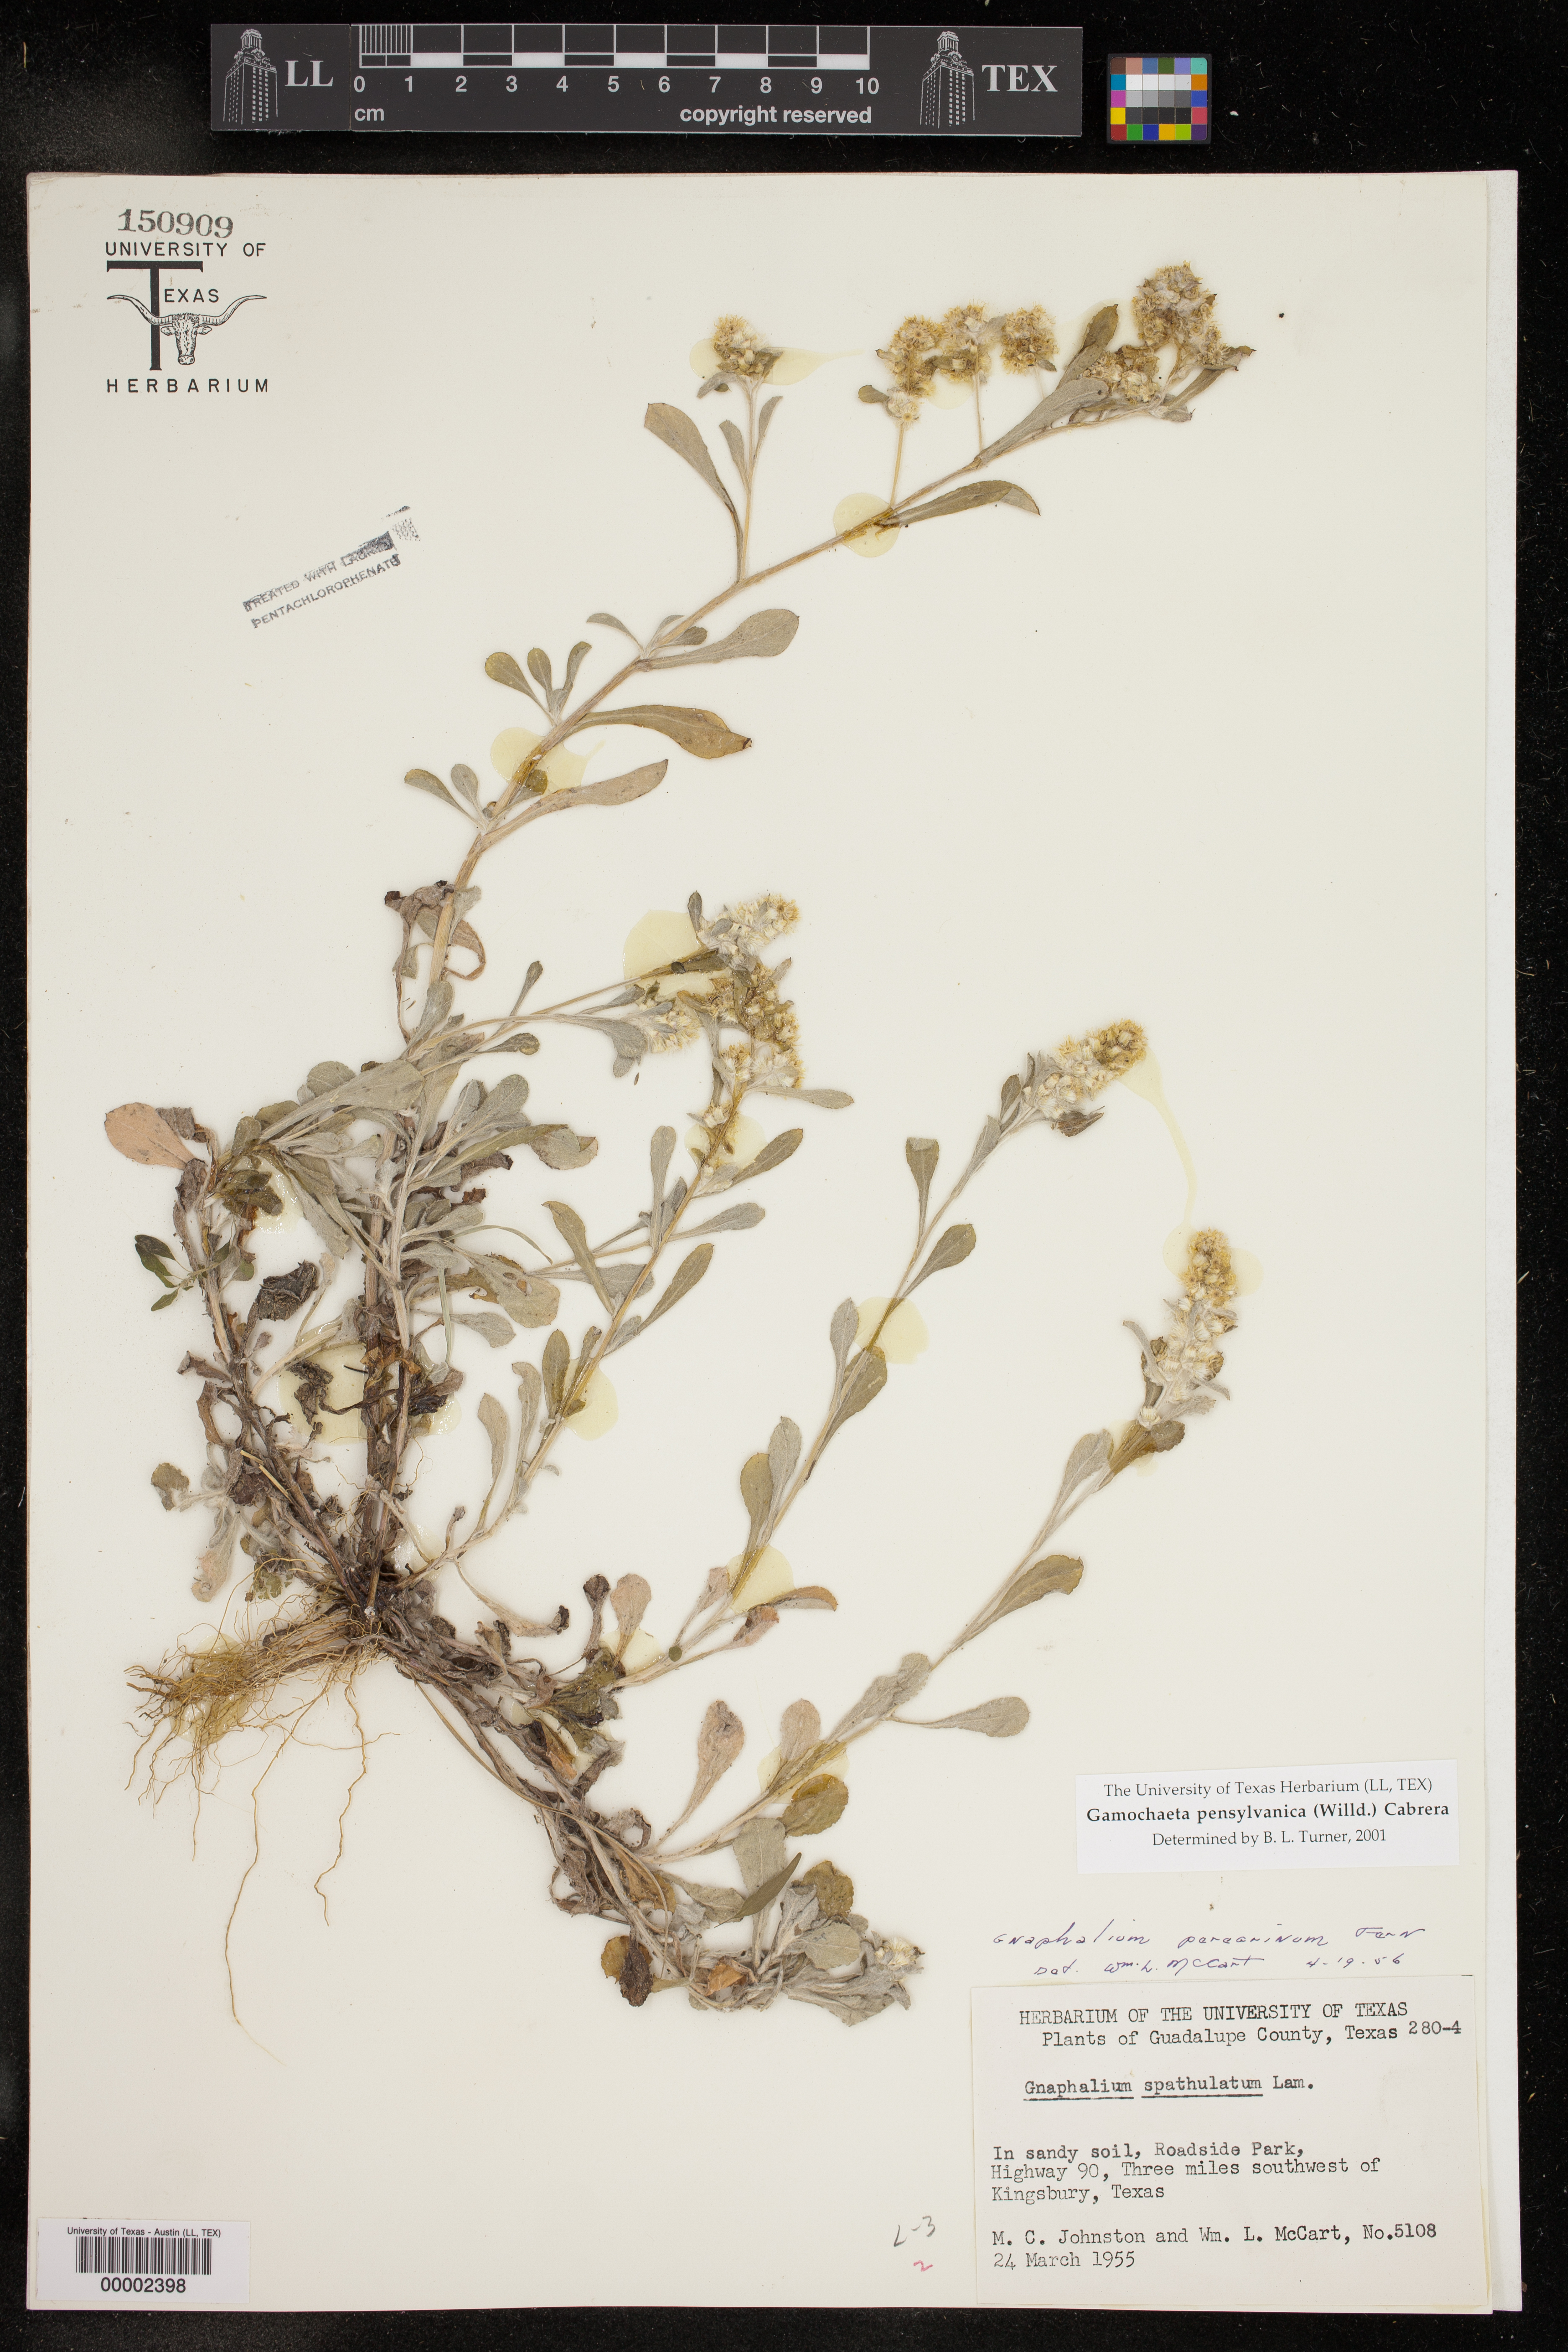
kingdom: Plantae
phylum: Tracheophyta
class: Magnoliopsida
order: Asterales
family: Asteraceae
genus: Gamochaeta
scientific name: Gamochaeta pensylvanica
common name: Pennsylvania everlasting
